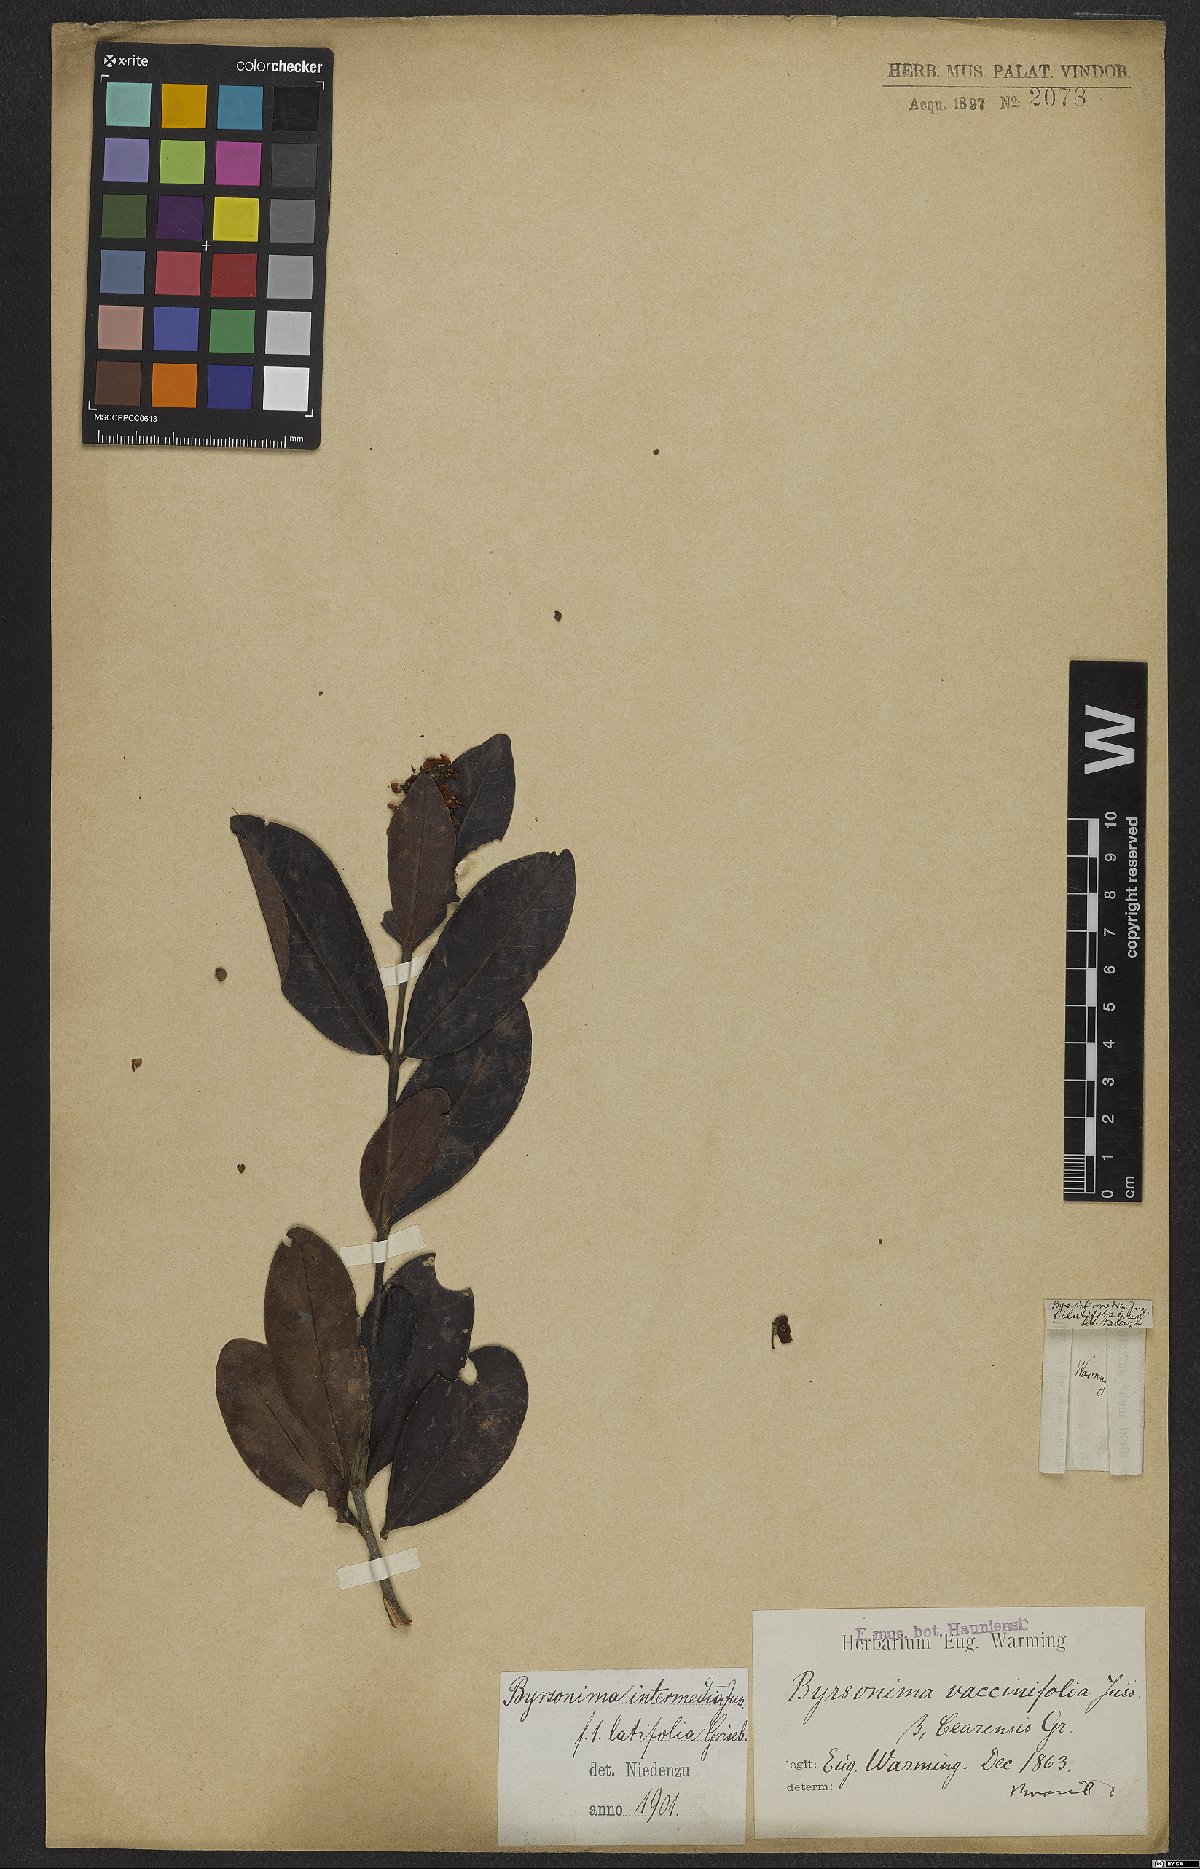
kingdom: Plantae
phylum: Tracheophyta
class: Magnoliopsida
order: Malpighiales
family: Malpighiaceae
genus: Byrsonima
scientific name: Byrsonima intermedia
